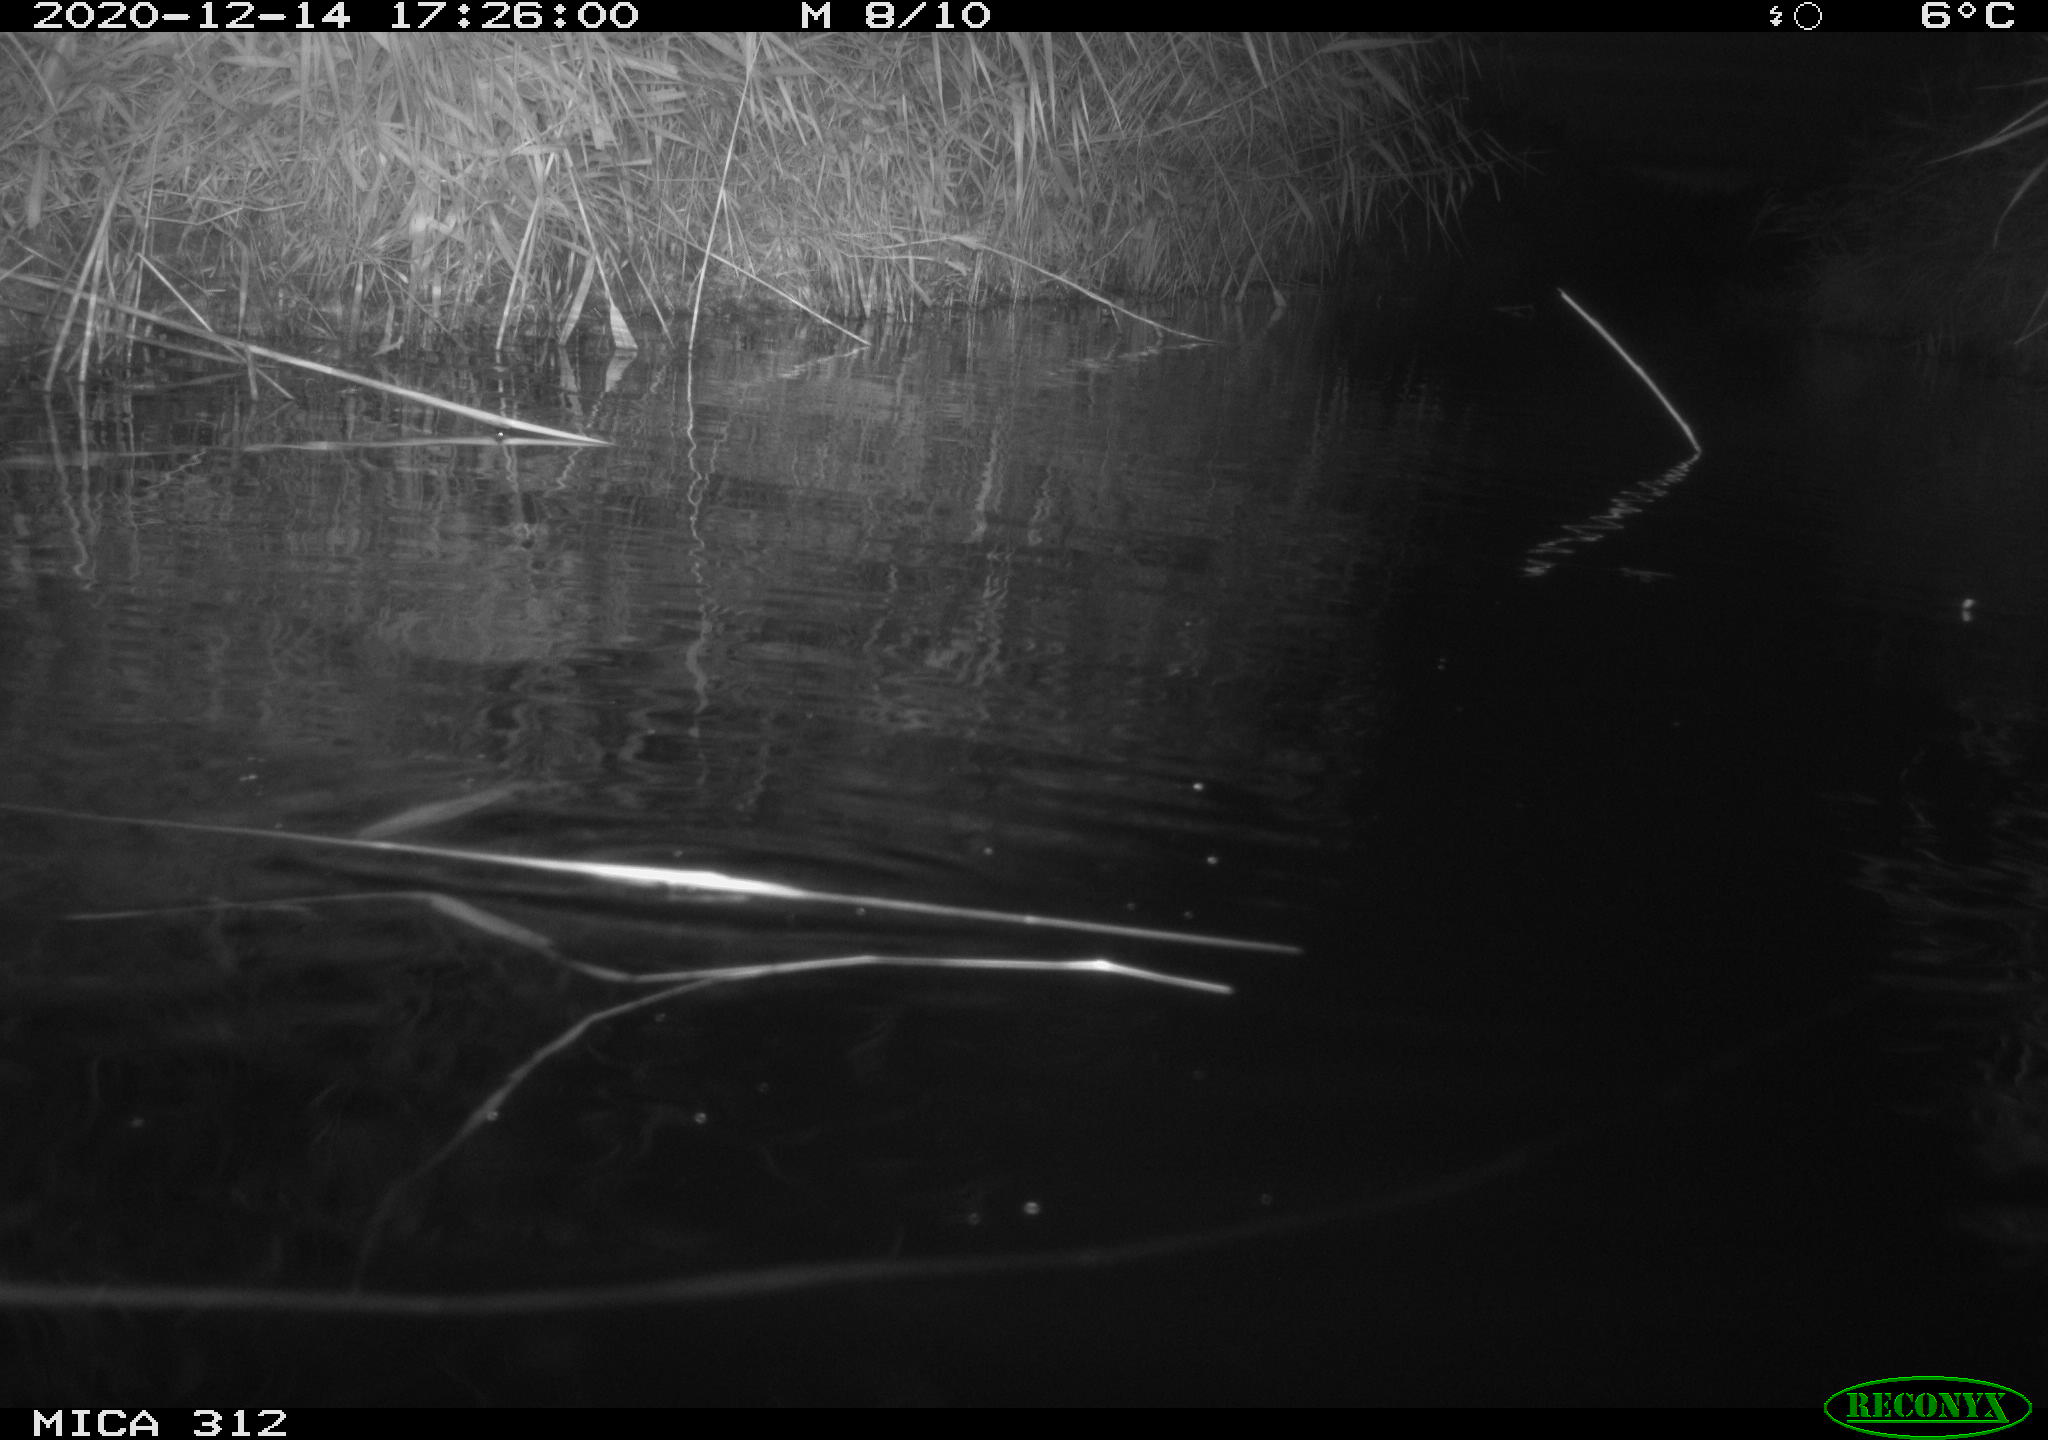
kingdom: Animalia
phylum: Chordata
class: Aves
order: Gruiformes
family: Rallidae
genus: Fulica
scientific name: Fulica atra
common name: Eurasian coot
